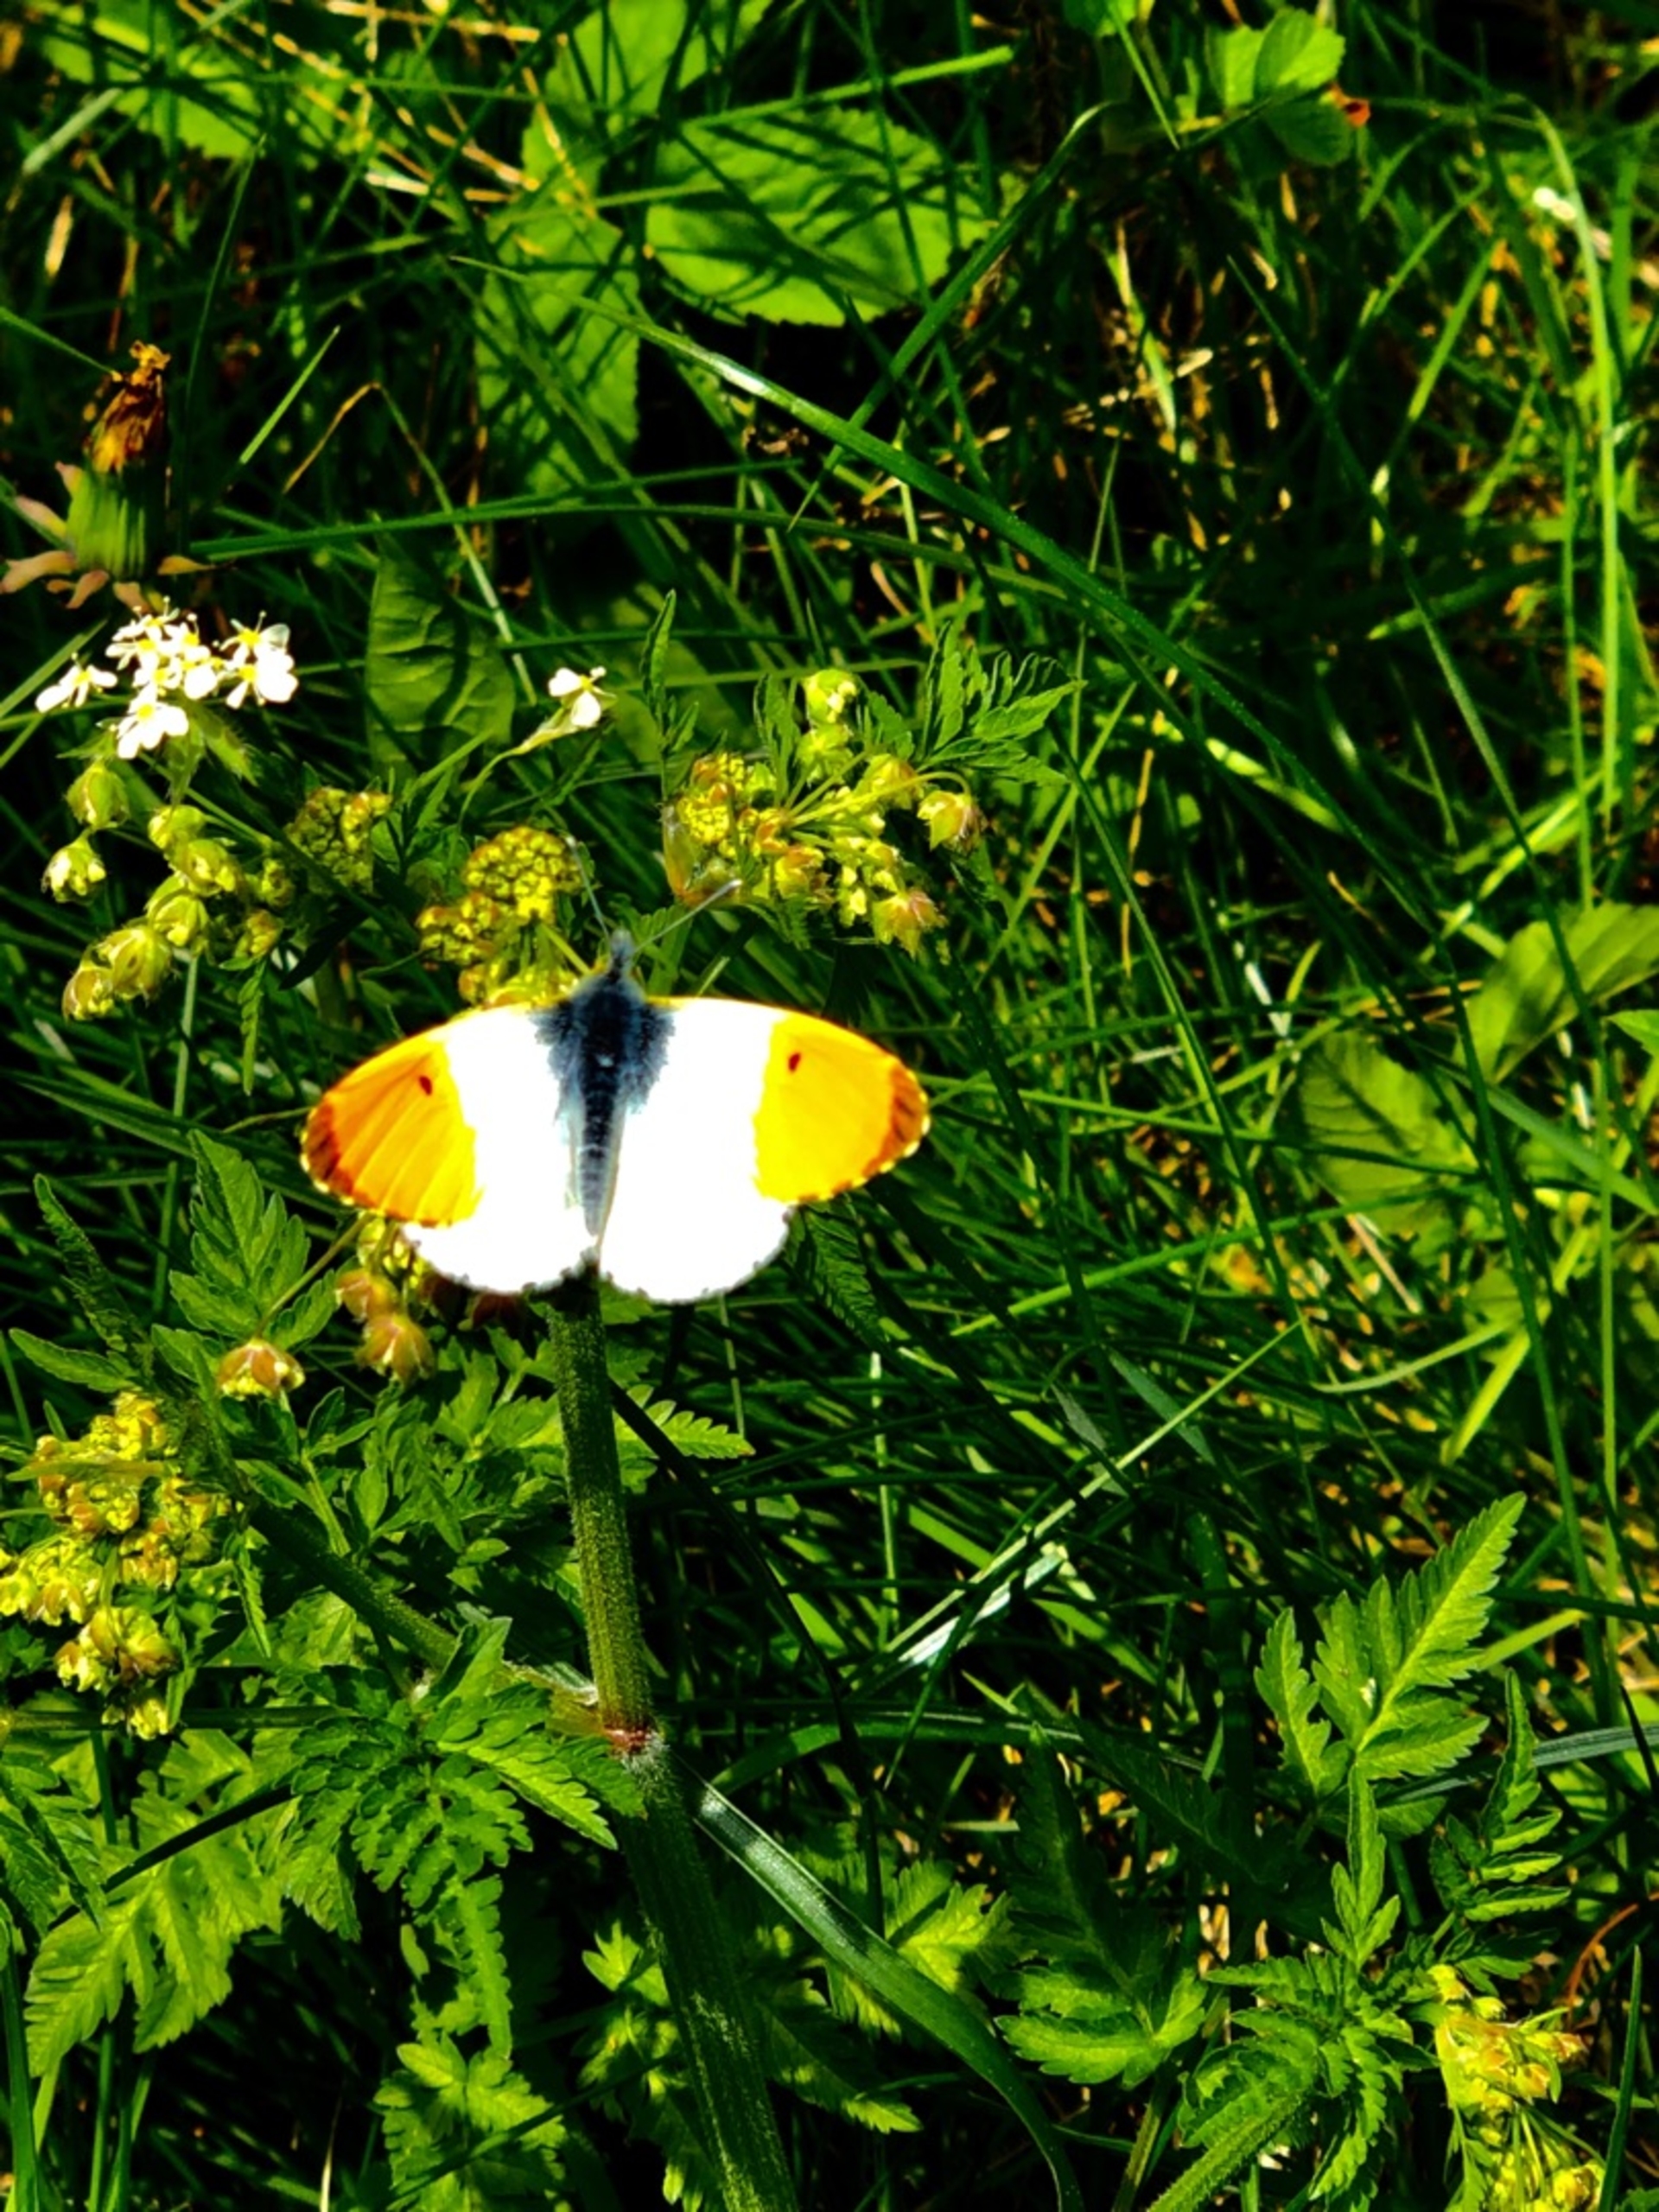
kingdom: Animalia
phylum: Arthropoda
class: Insecta
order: Lepidoptera
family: Pieridae
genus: Anthocharis
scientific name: Anthocharis cardamines
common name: Aurora
